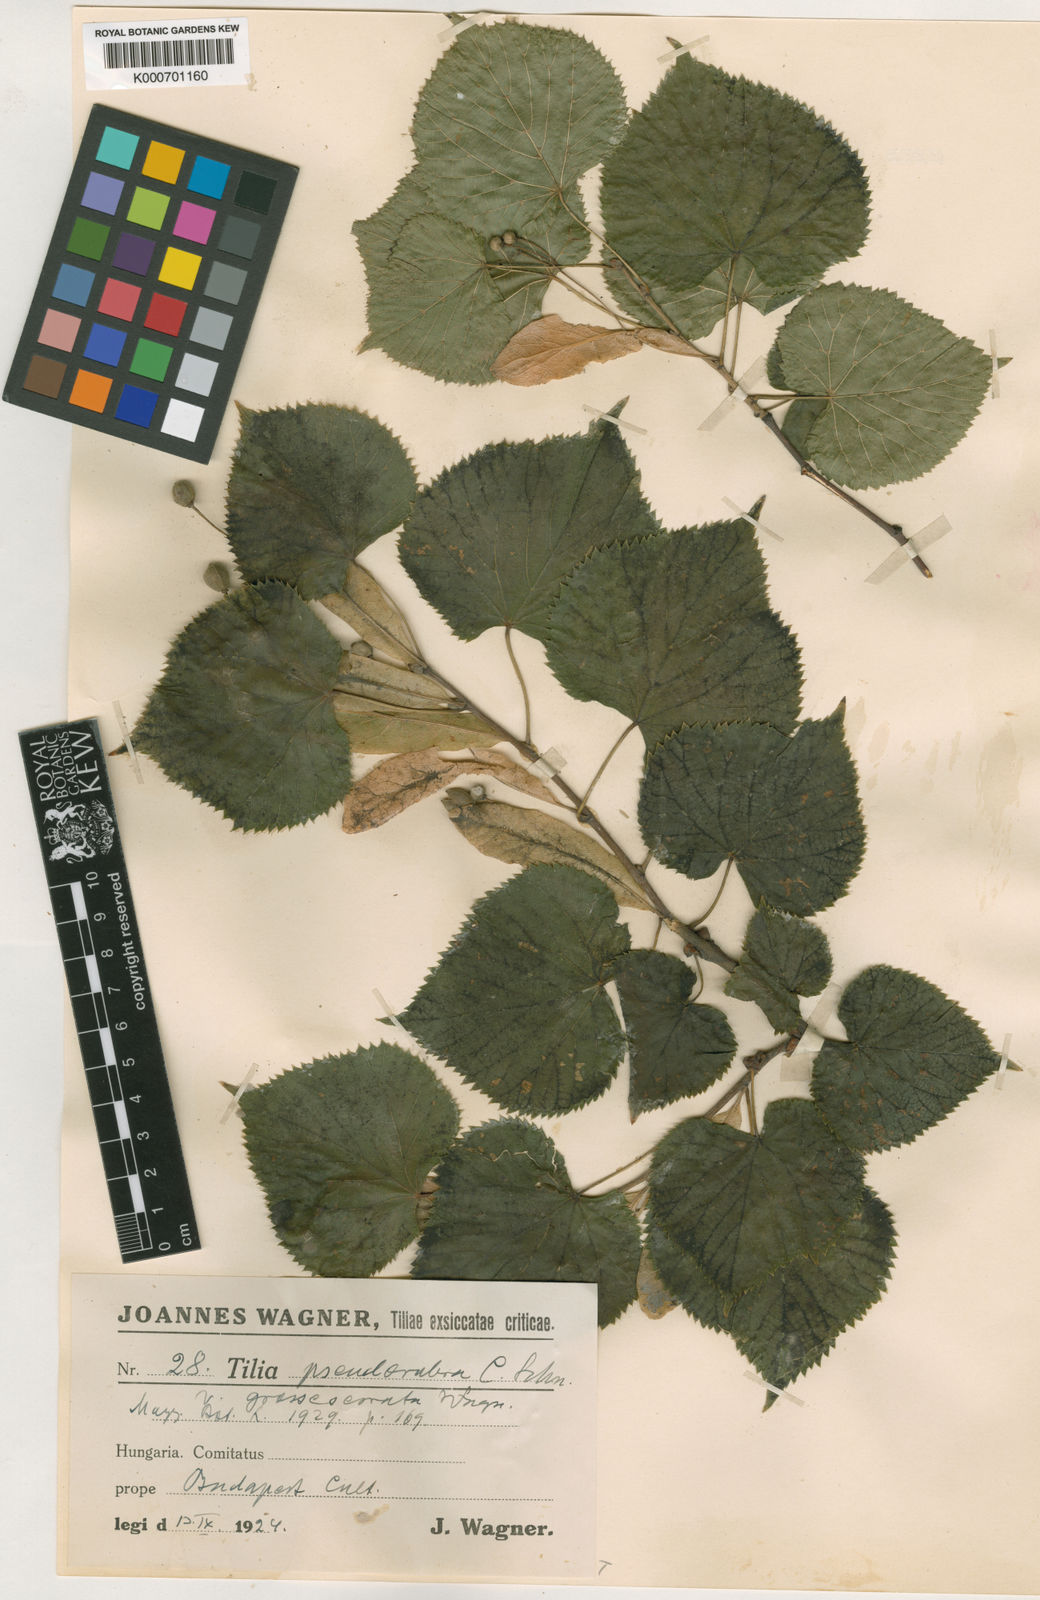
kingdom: Plantae
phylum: Tracheophyta
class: Magnoliopsida
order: Malvales
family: Malvaceae
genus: Tilia
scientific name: Tilia
